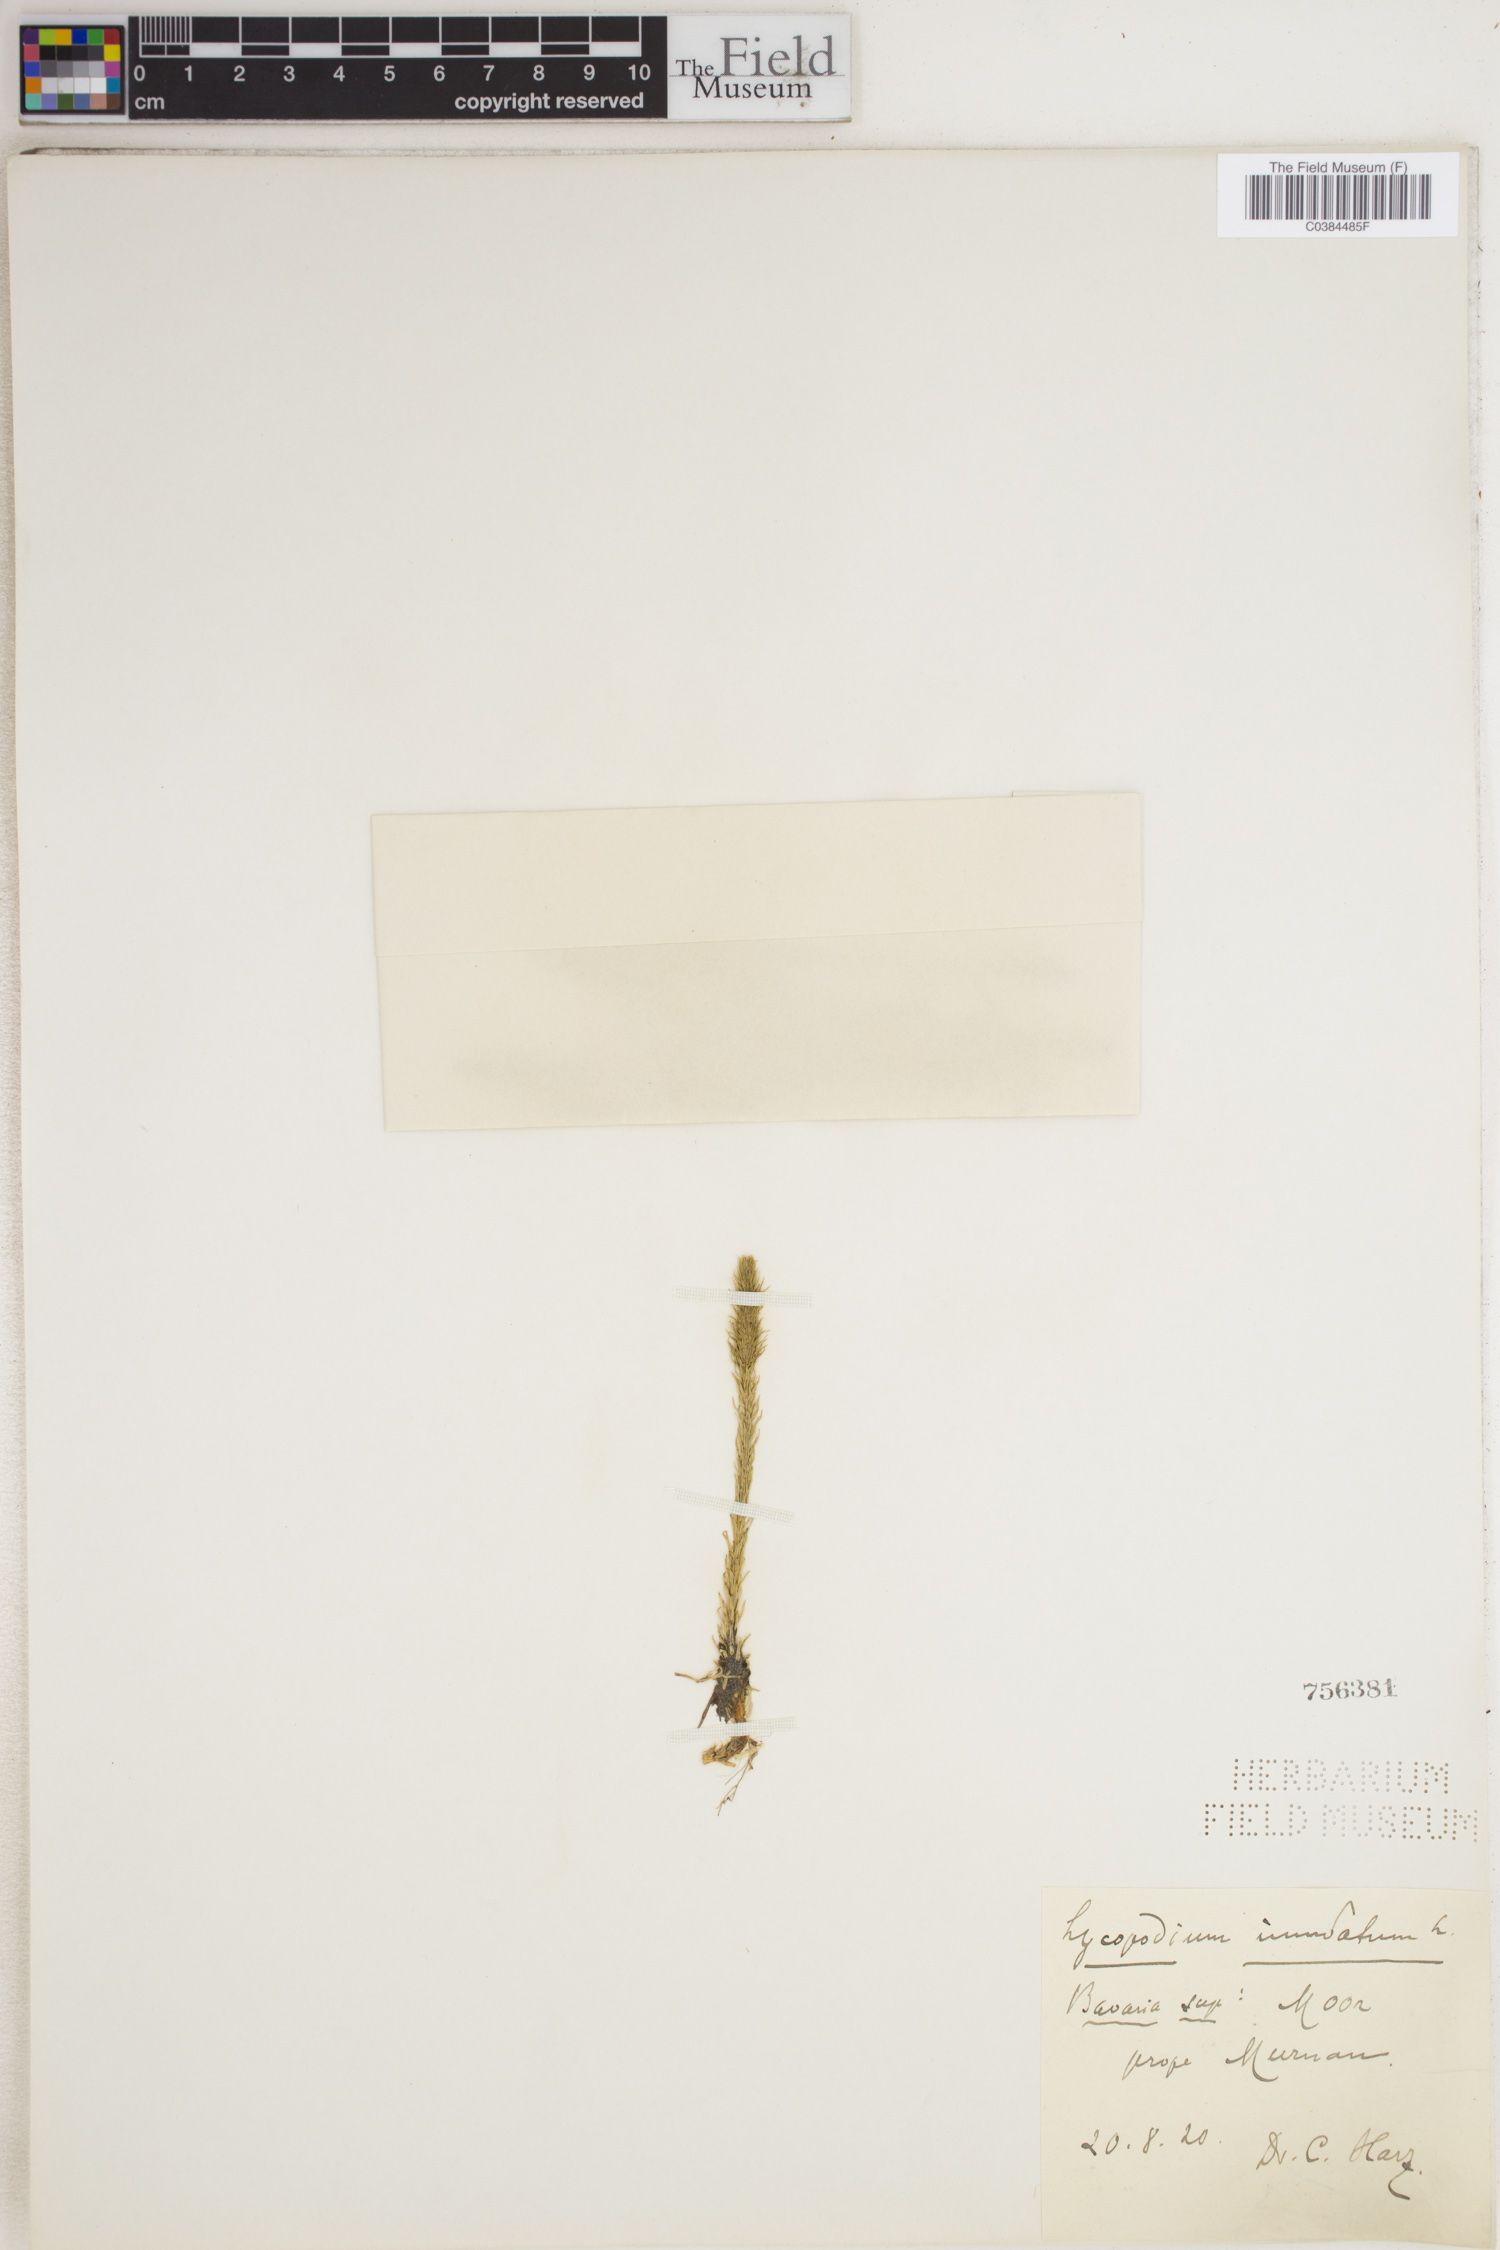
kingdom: Plantae
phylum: Tracheophyta
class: Lycopodiopsida
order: Lycopodiales
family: Lycopodiaceae
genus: Lycopodiella
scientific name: Lycopodiella inundata
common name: Marsh clubmoss
